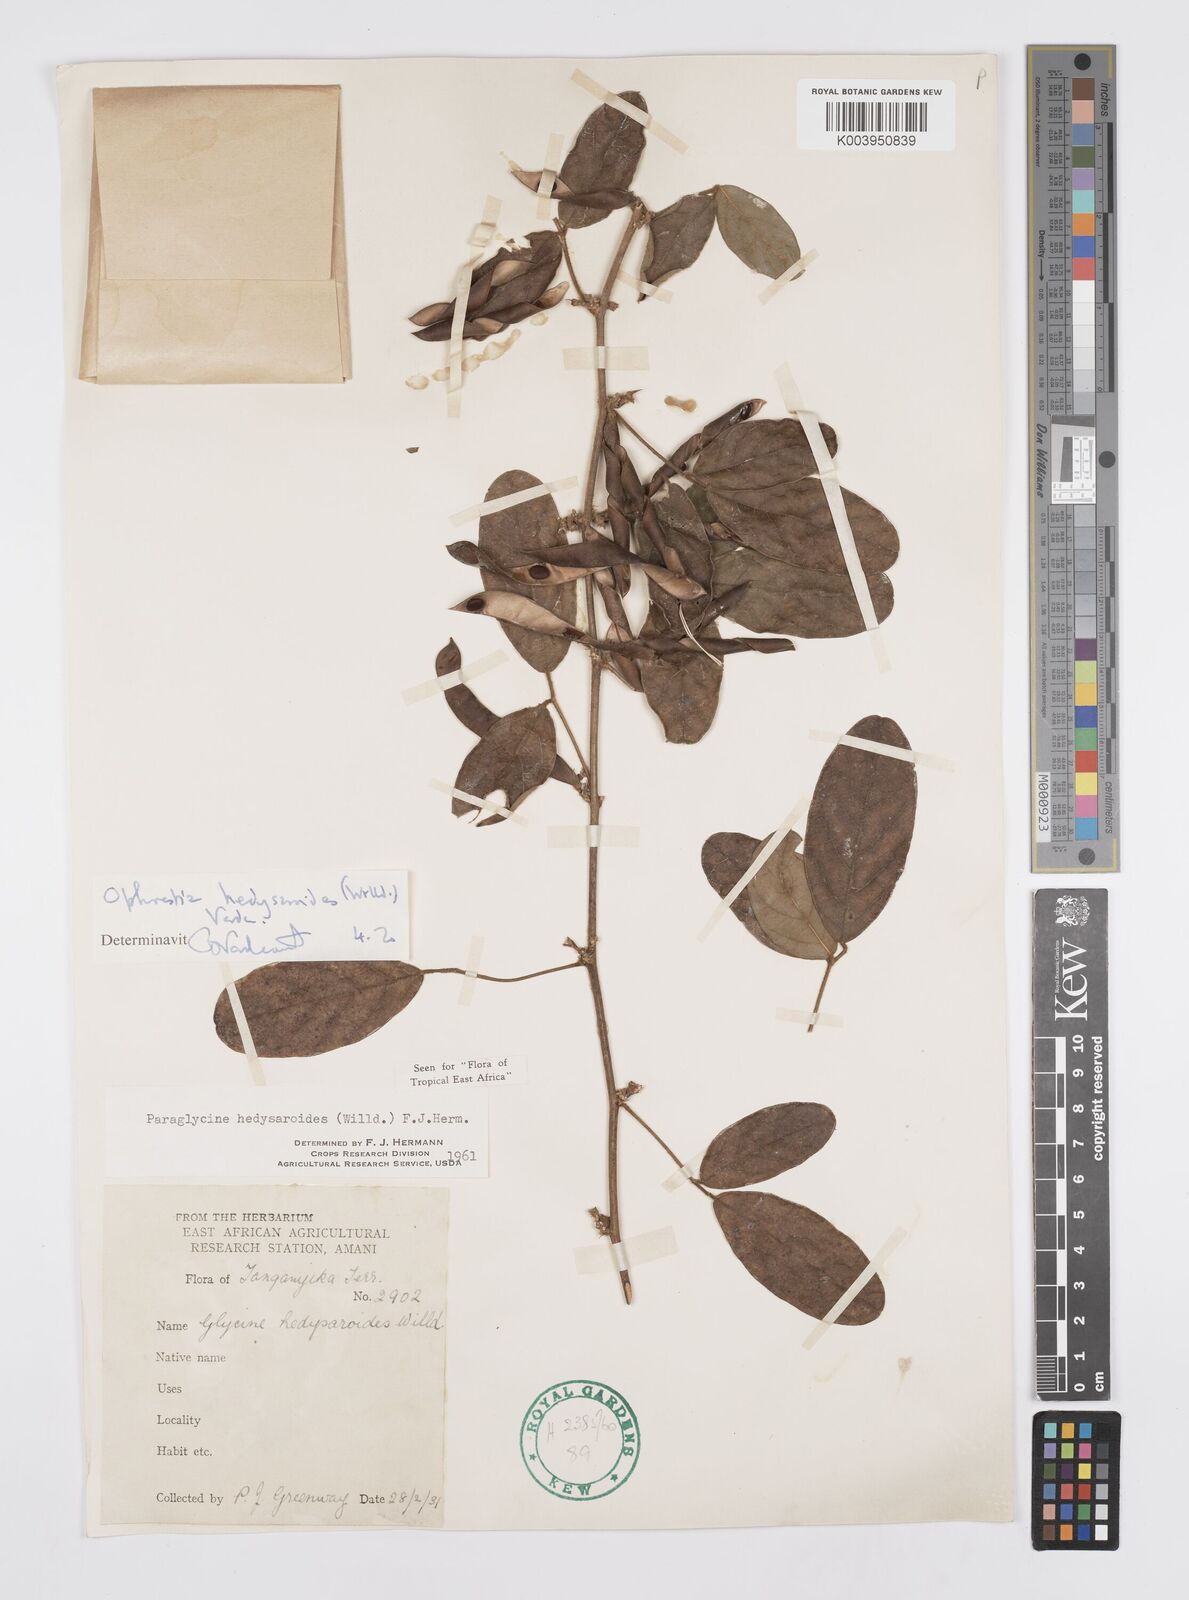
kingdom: Plantae
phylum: Tracheophyta
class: Magnoliopsida
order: Fabales
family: Fabaceae
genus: Ophrestia
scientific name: Ophrestia hedysaroides
